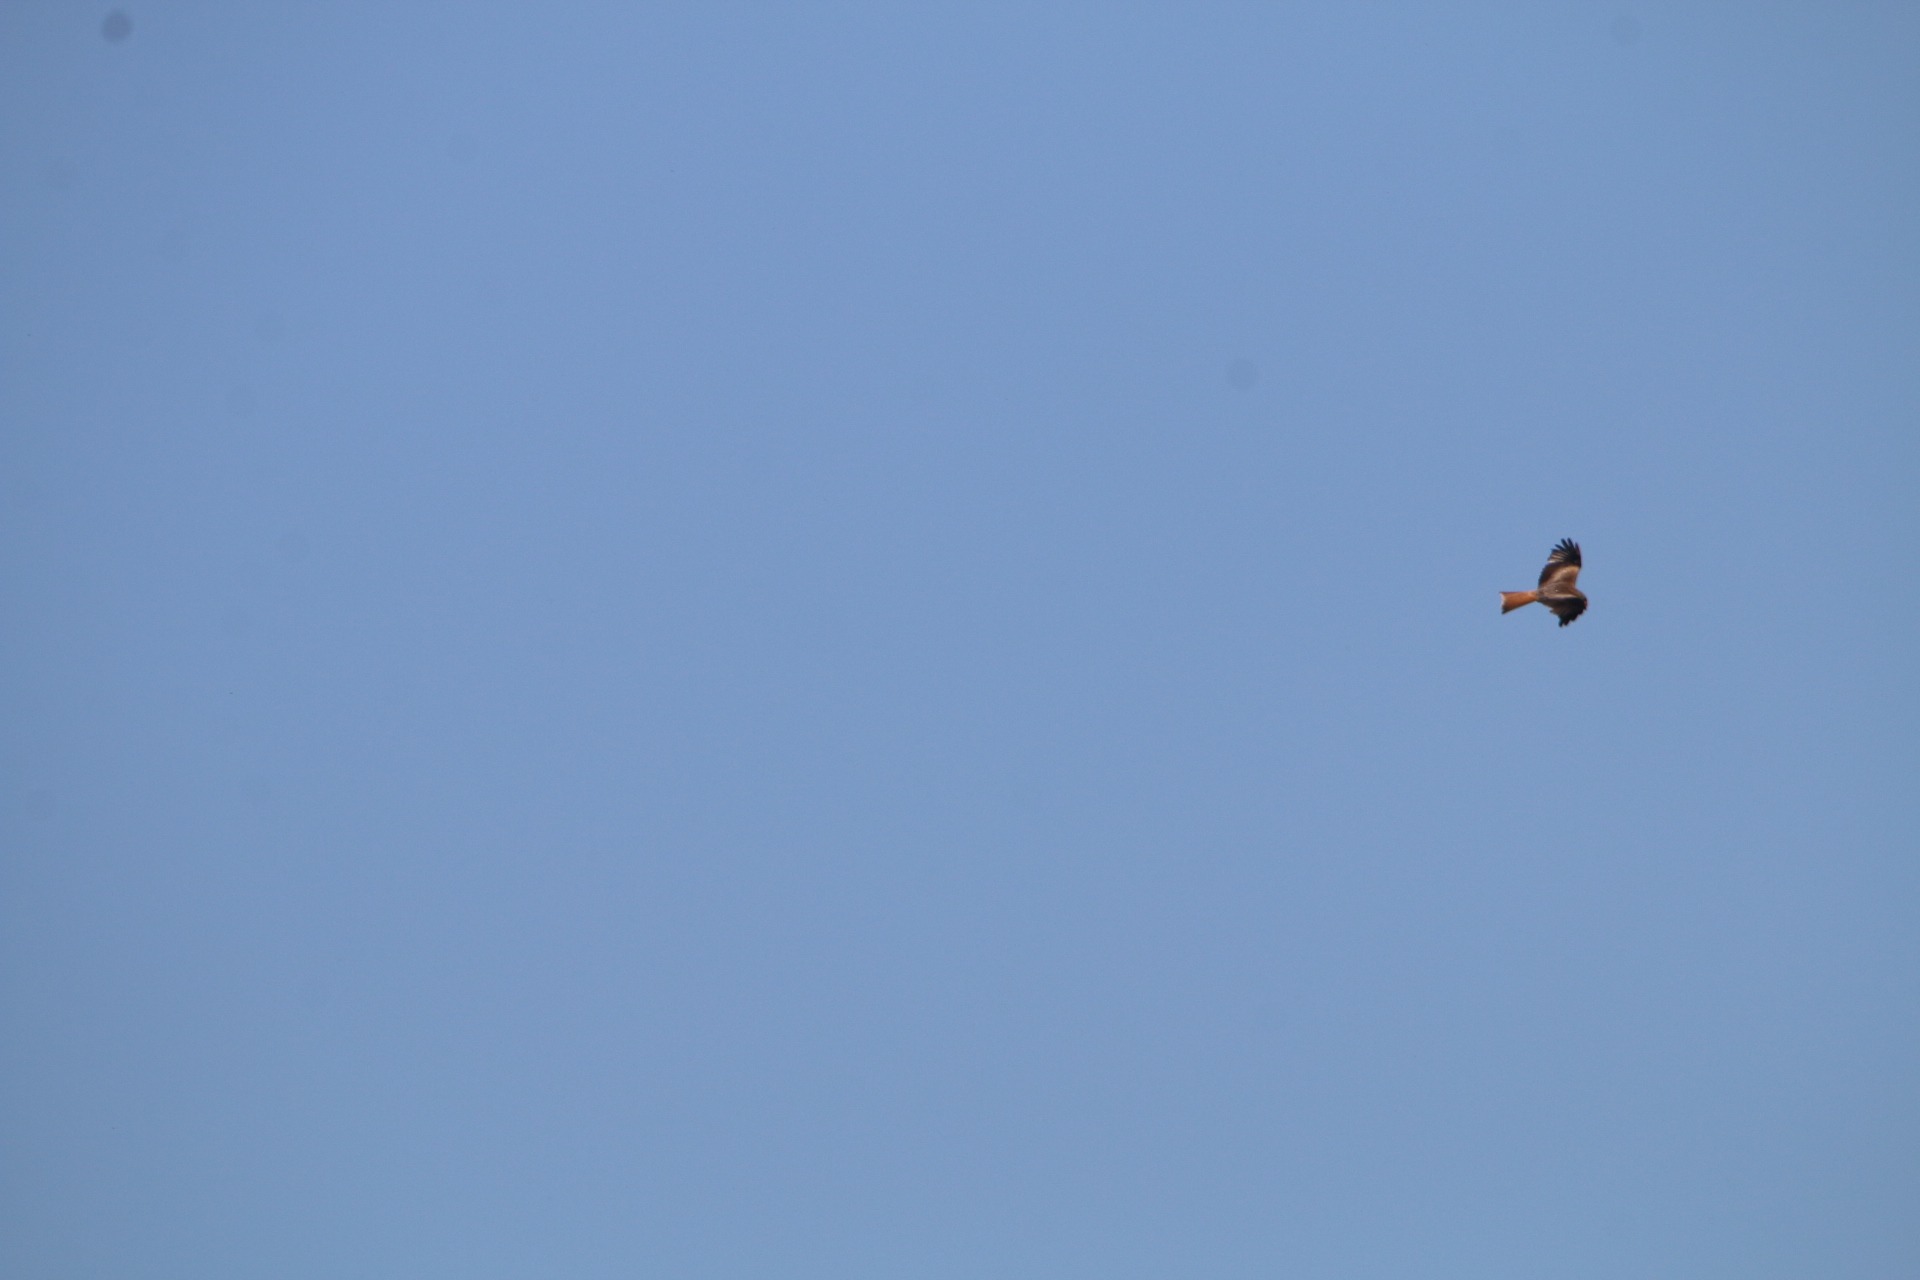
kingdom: Animalia
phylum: Chordata
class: Aves
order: Accipitriformes
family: Accipitridae
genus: Milvus
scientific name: Milvus milvus
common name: Rød glente
